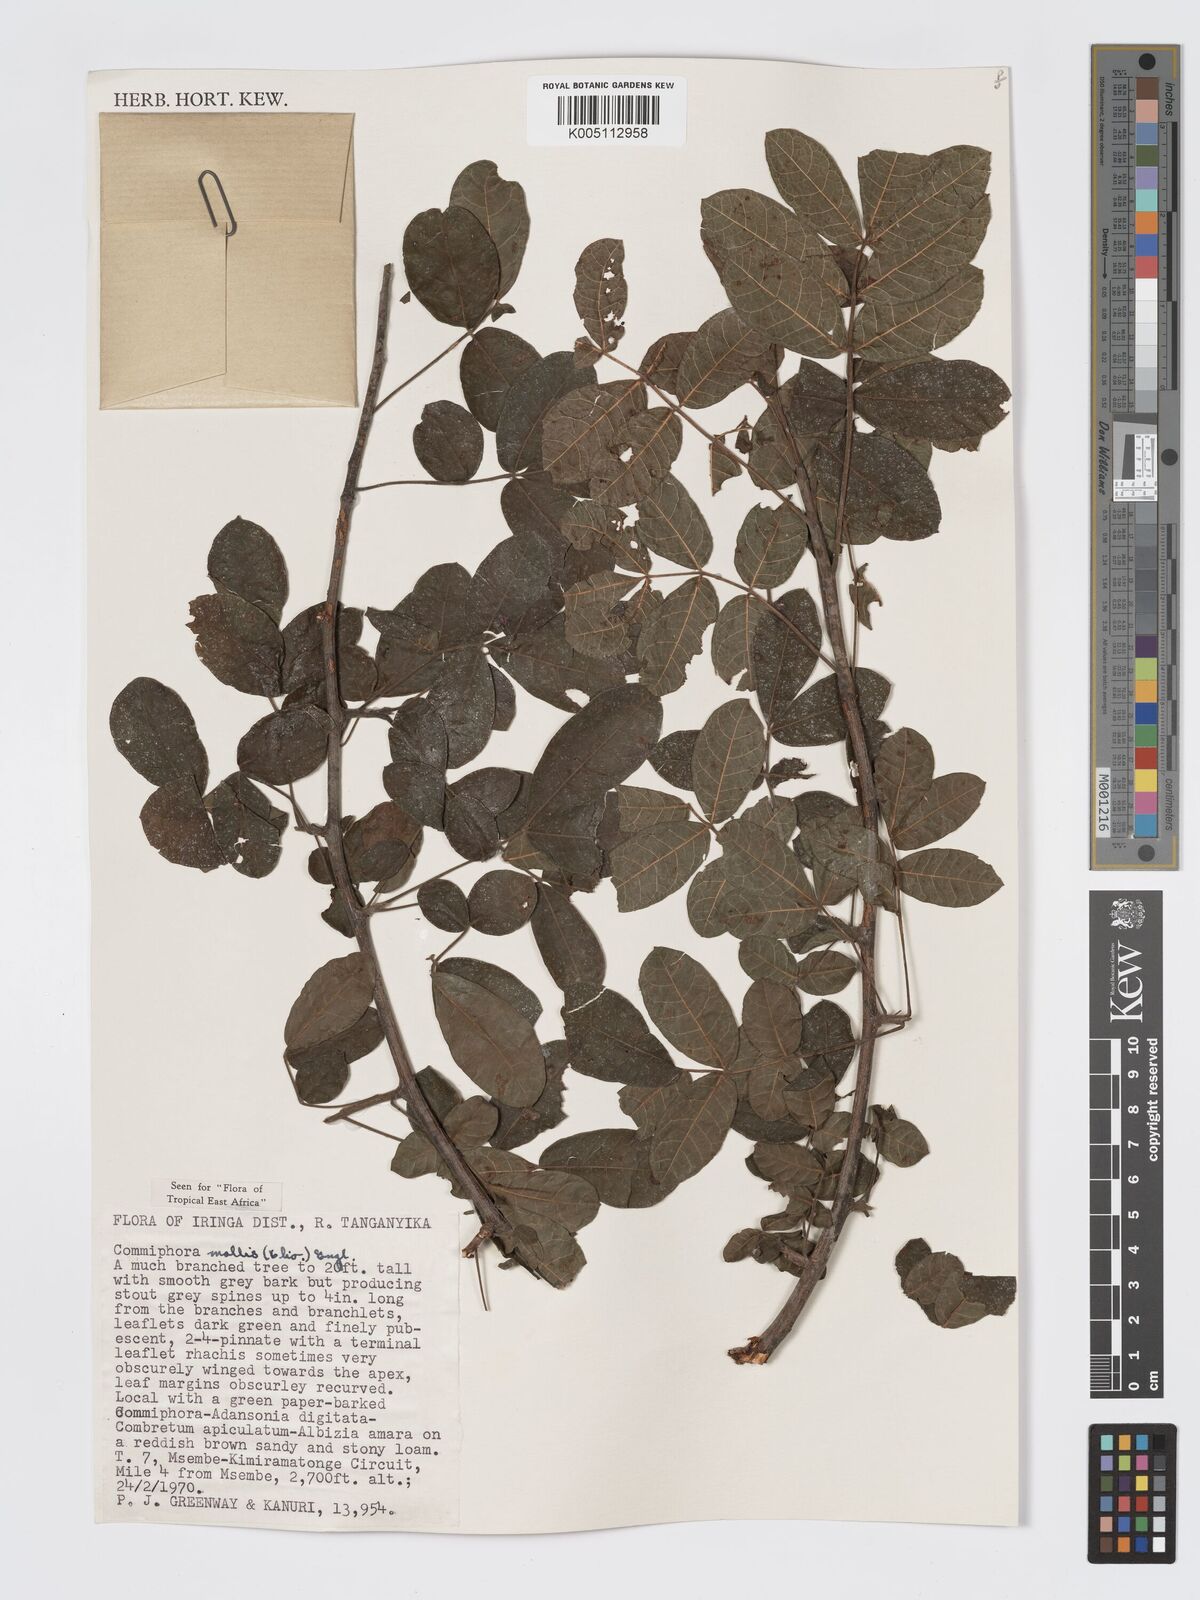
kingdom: Plantae
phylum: Tracheophyta
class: Magnoliopsida
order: Sapindales
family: Burseraceae
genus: Commiphora
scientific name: Commiphora
